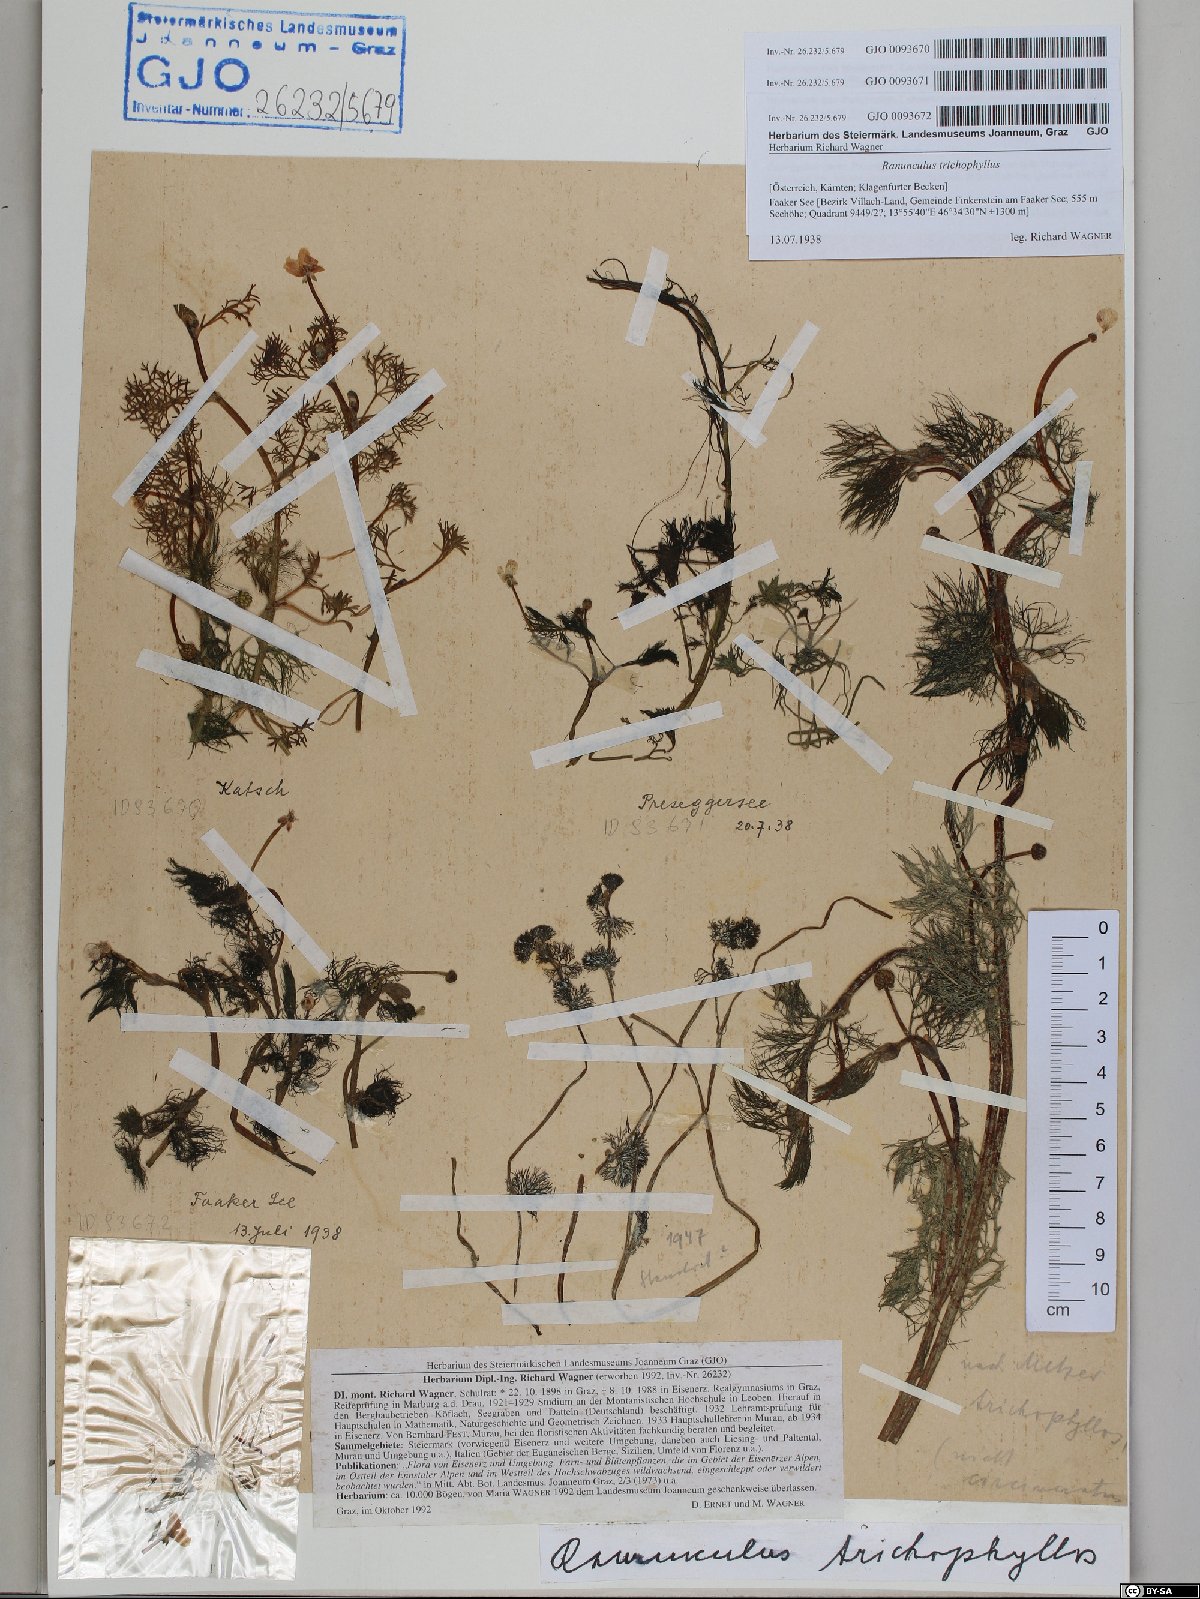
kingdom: Plantae
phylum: Tracheophyta
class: Magnoliopsida
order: Ranunculales
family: Ranunculaceae
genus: Ranunculus
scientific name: Ranunculus trichophyllus
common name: Thread-leaved water-crowfoot
